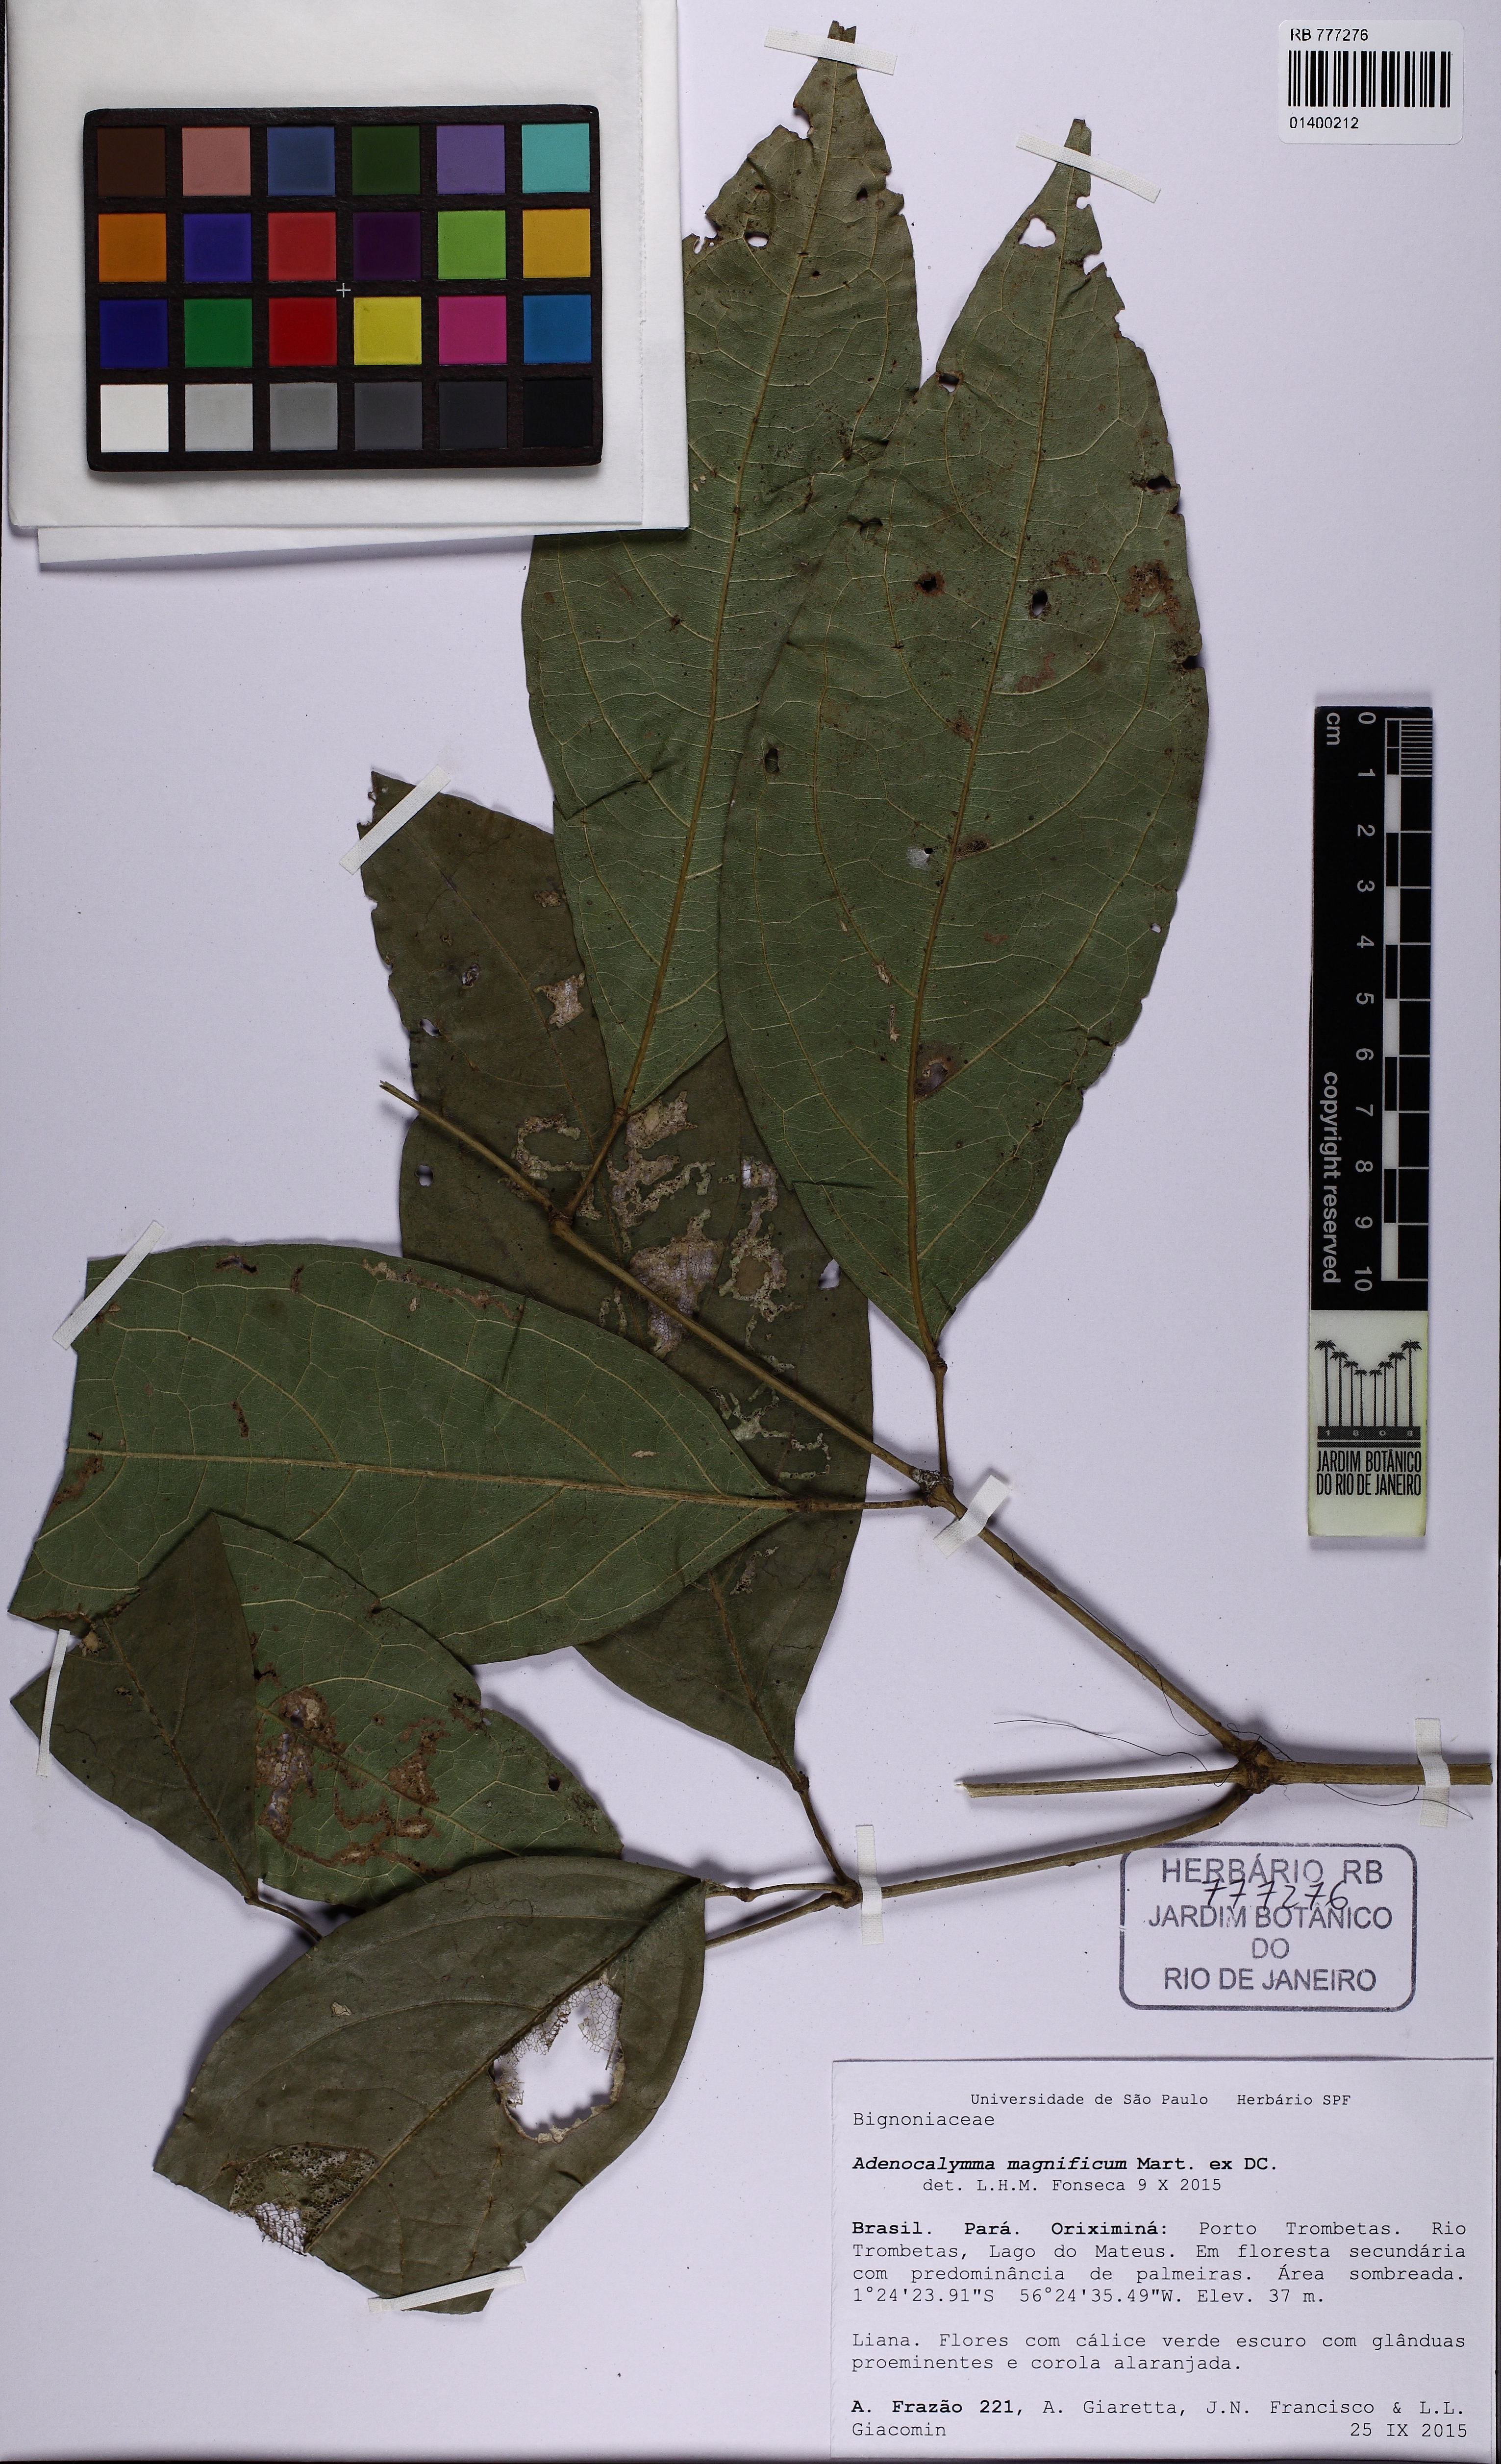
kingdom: Plantae
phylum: Tracheophyta
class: Magnoliopsida
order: Lamiales
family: Bignoniaceae
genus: Adenocalymma
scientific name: Adenocalymma magnificum
